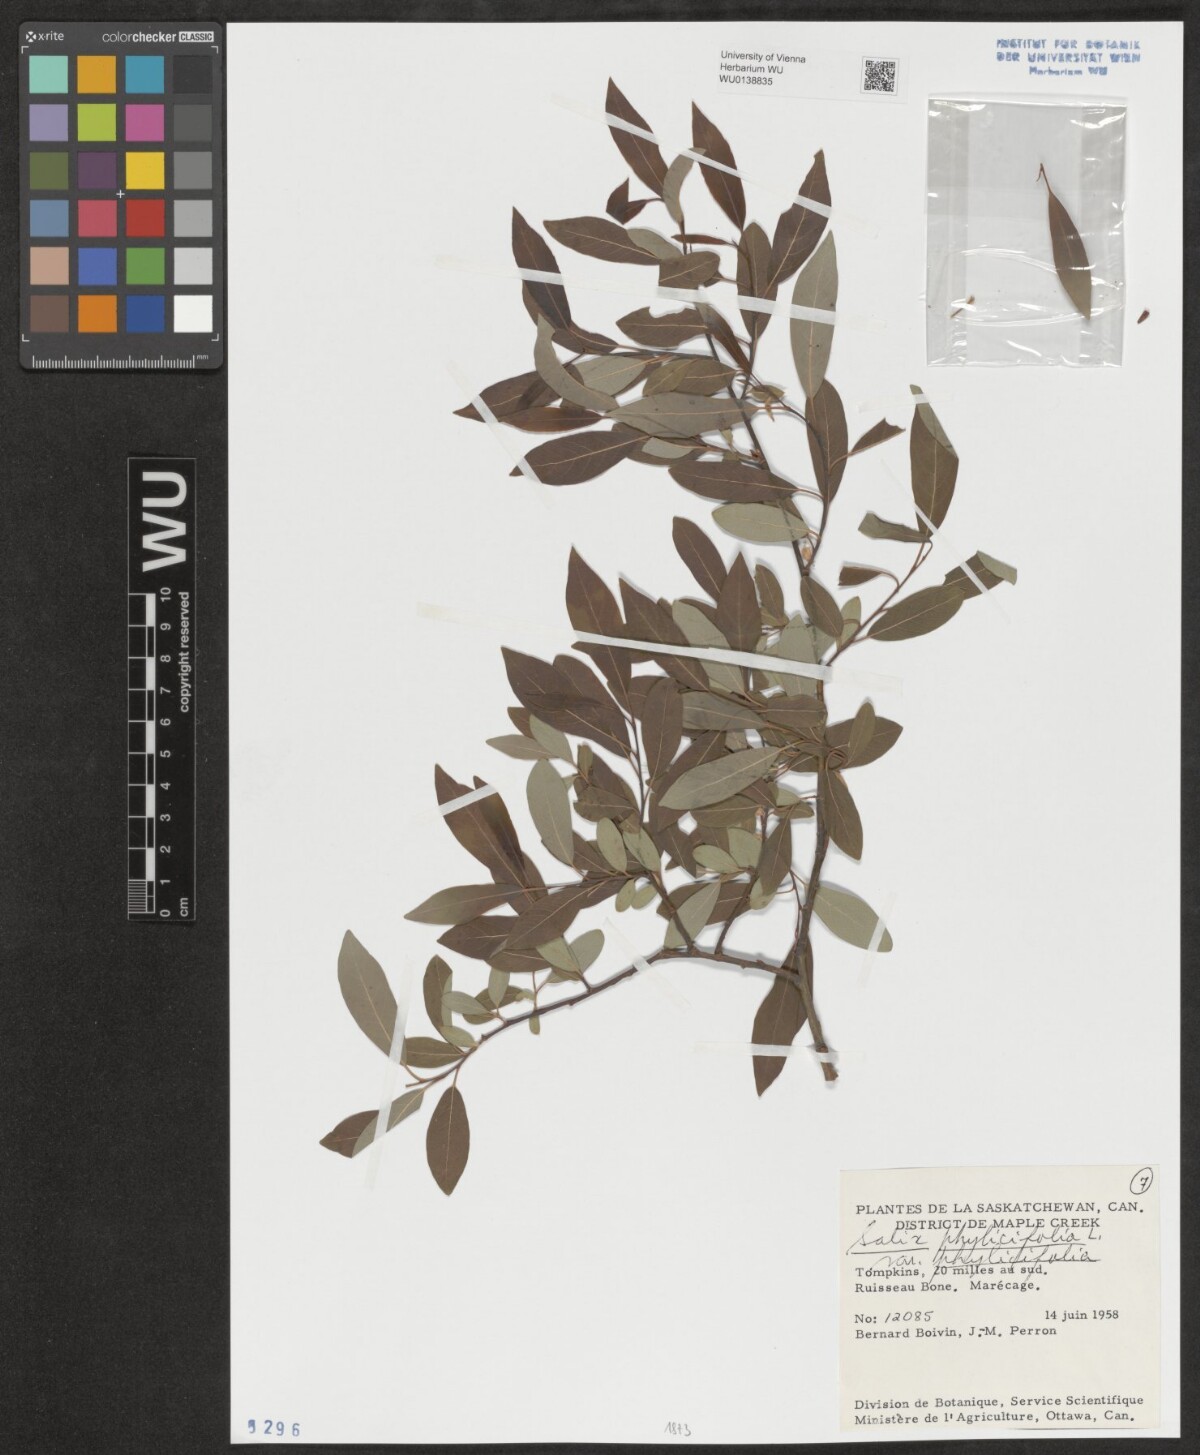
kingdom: Plantae
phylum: Tracheophyta
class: Magnoliopsida
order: Malpighiales
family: Salicaceae
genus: Salix
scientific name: Salix phylicifolia
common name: Tea-leaved willow
